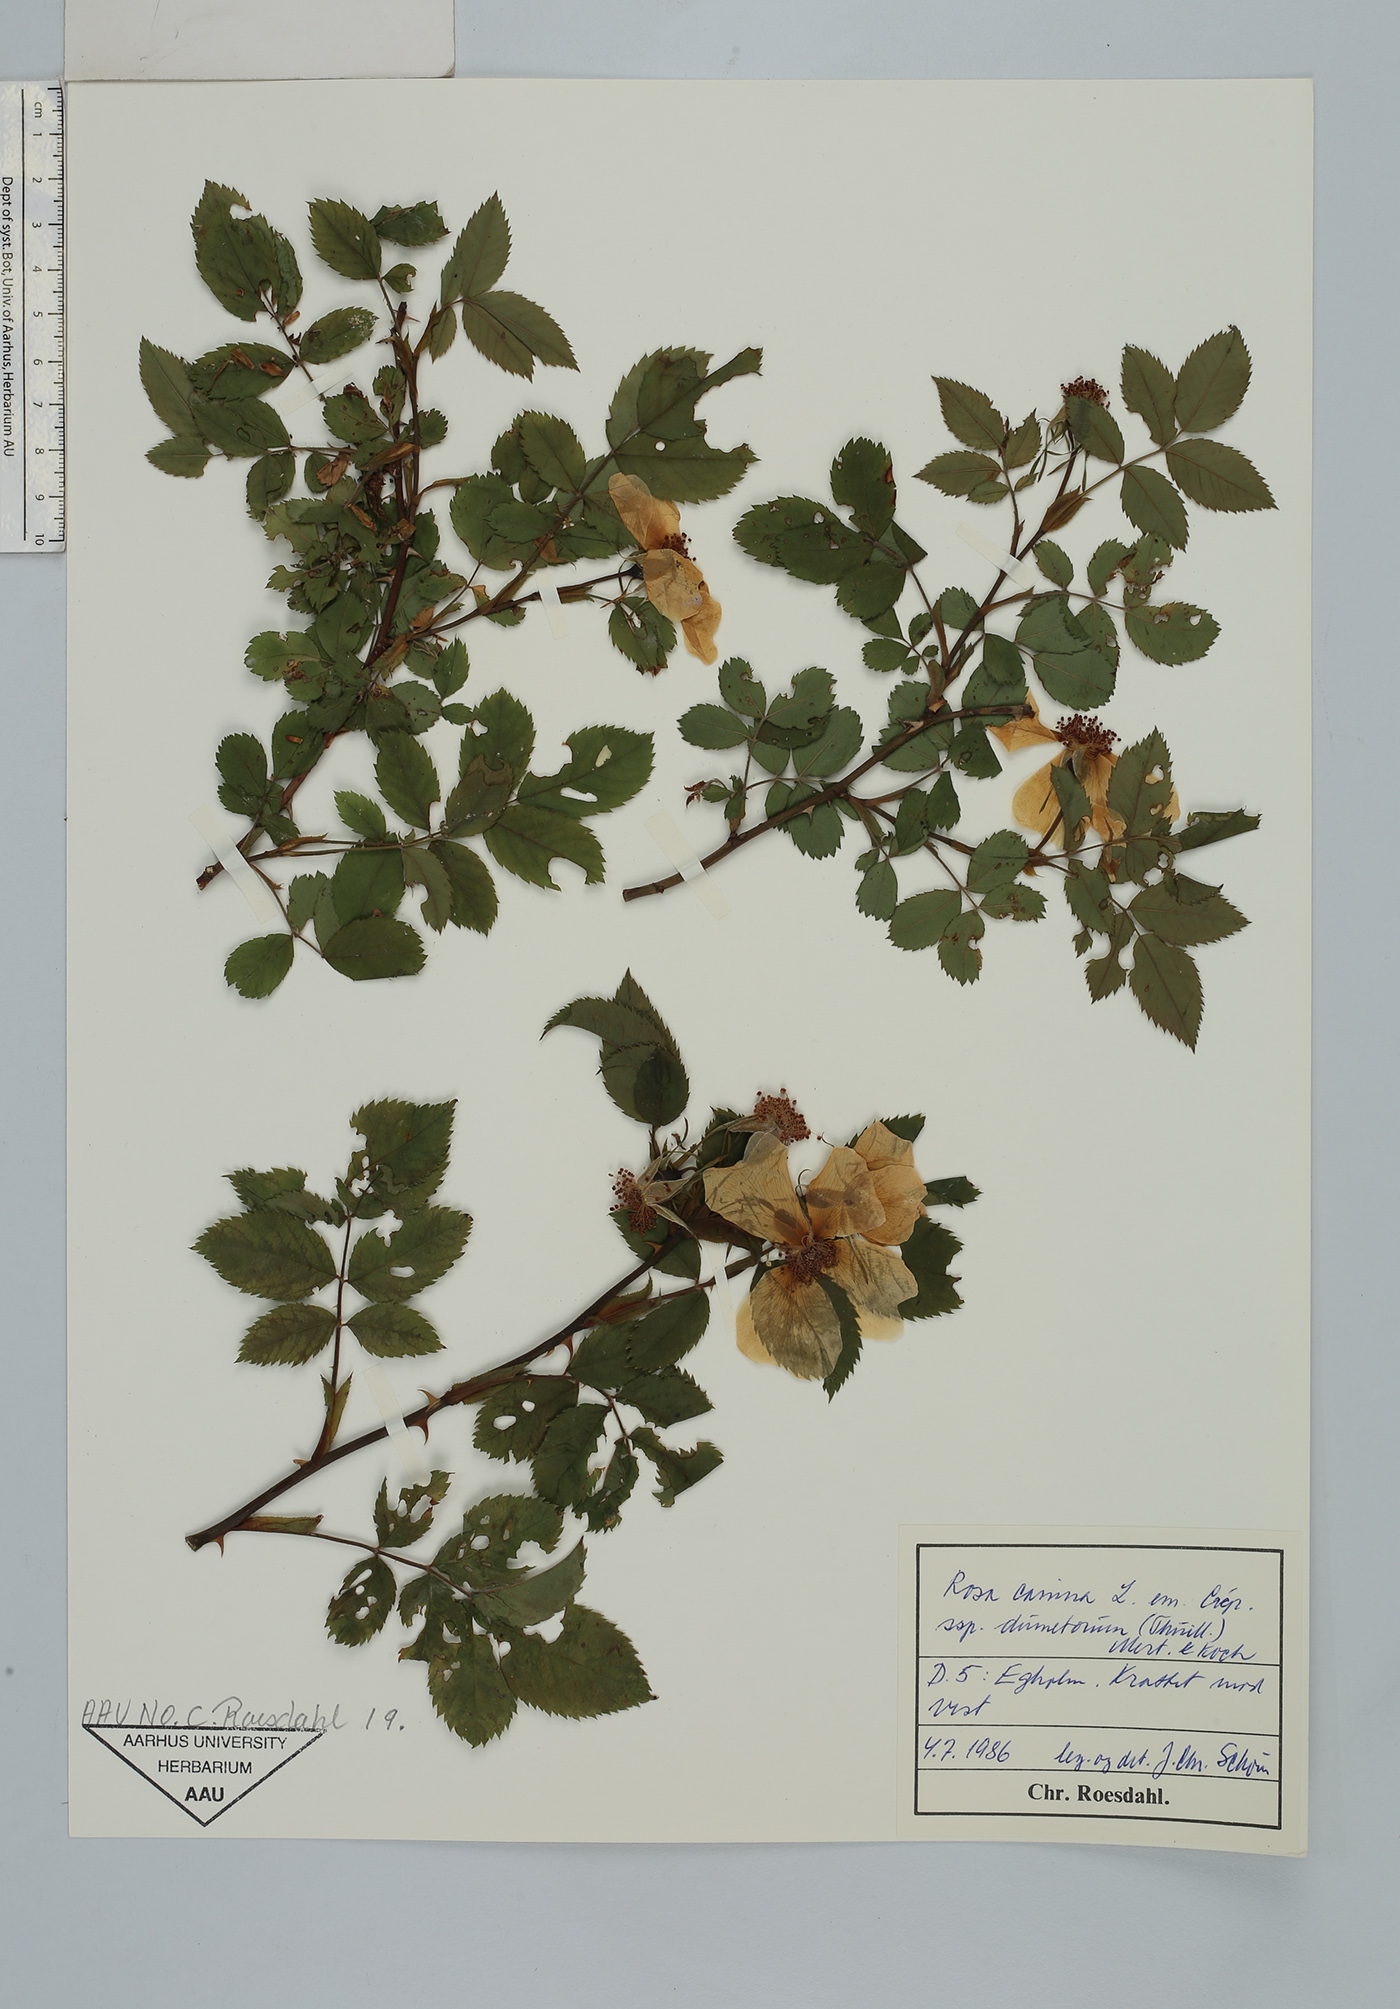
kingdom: Plantae
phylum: Tracheophyta
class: Magnoliopsida
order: Rosales
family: Rosaceae
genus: Rosa
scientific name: Rosa corymbifera
